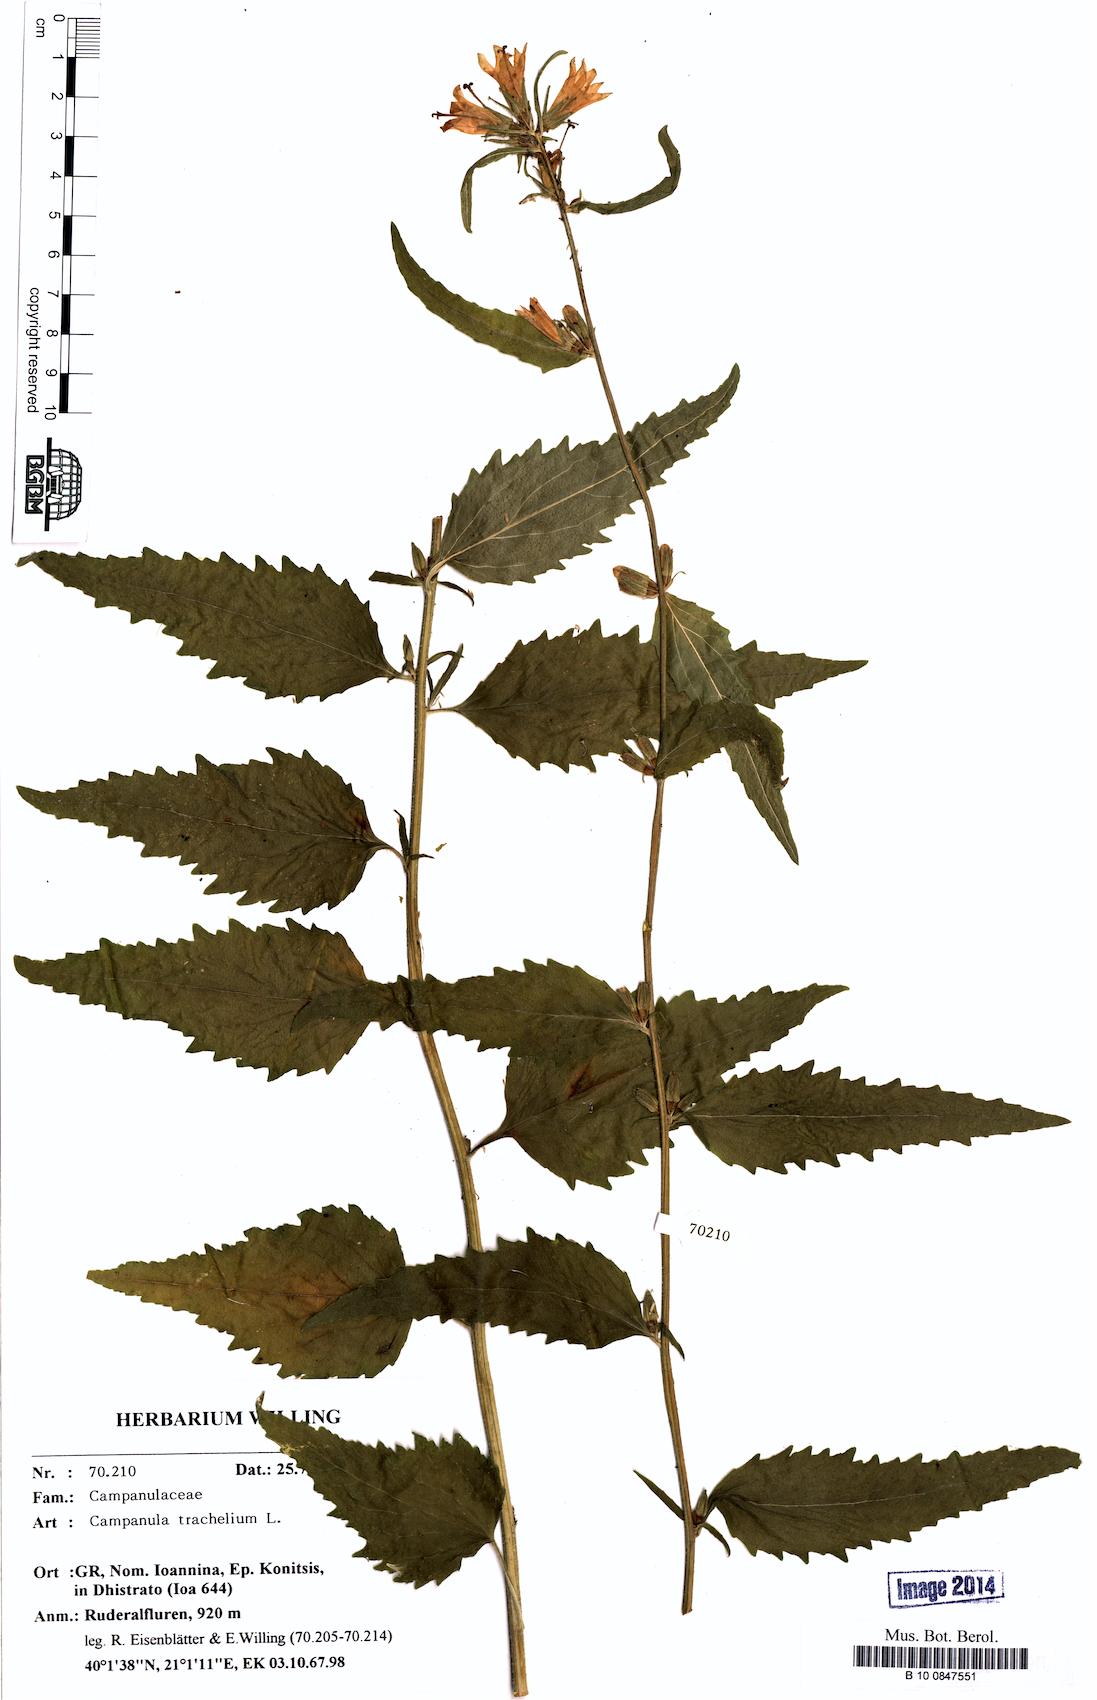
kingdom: Plantae
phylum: Tracheophyta
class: Magnoliopsida
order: Asterales
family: Campanulaceae
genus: Campanula
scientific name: Campanula trachelium
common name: Nettle-leaved bellflower
